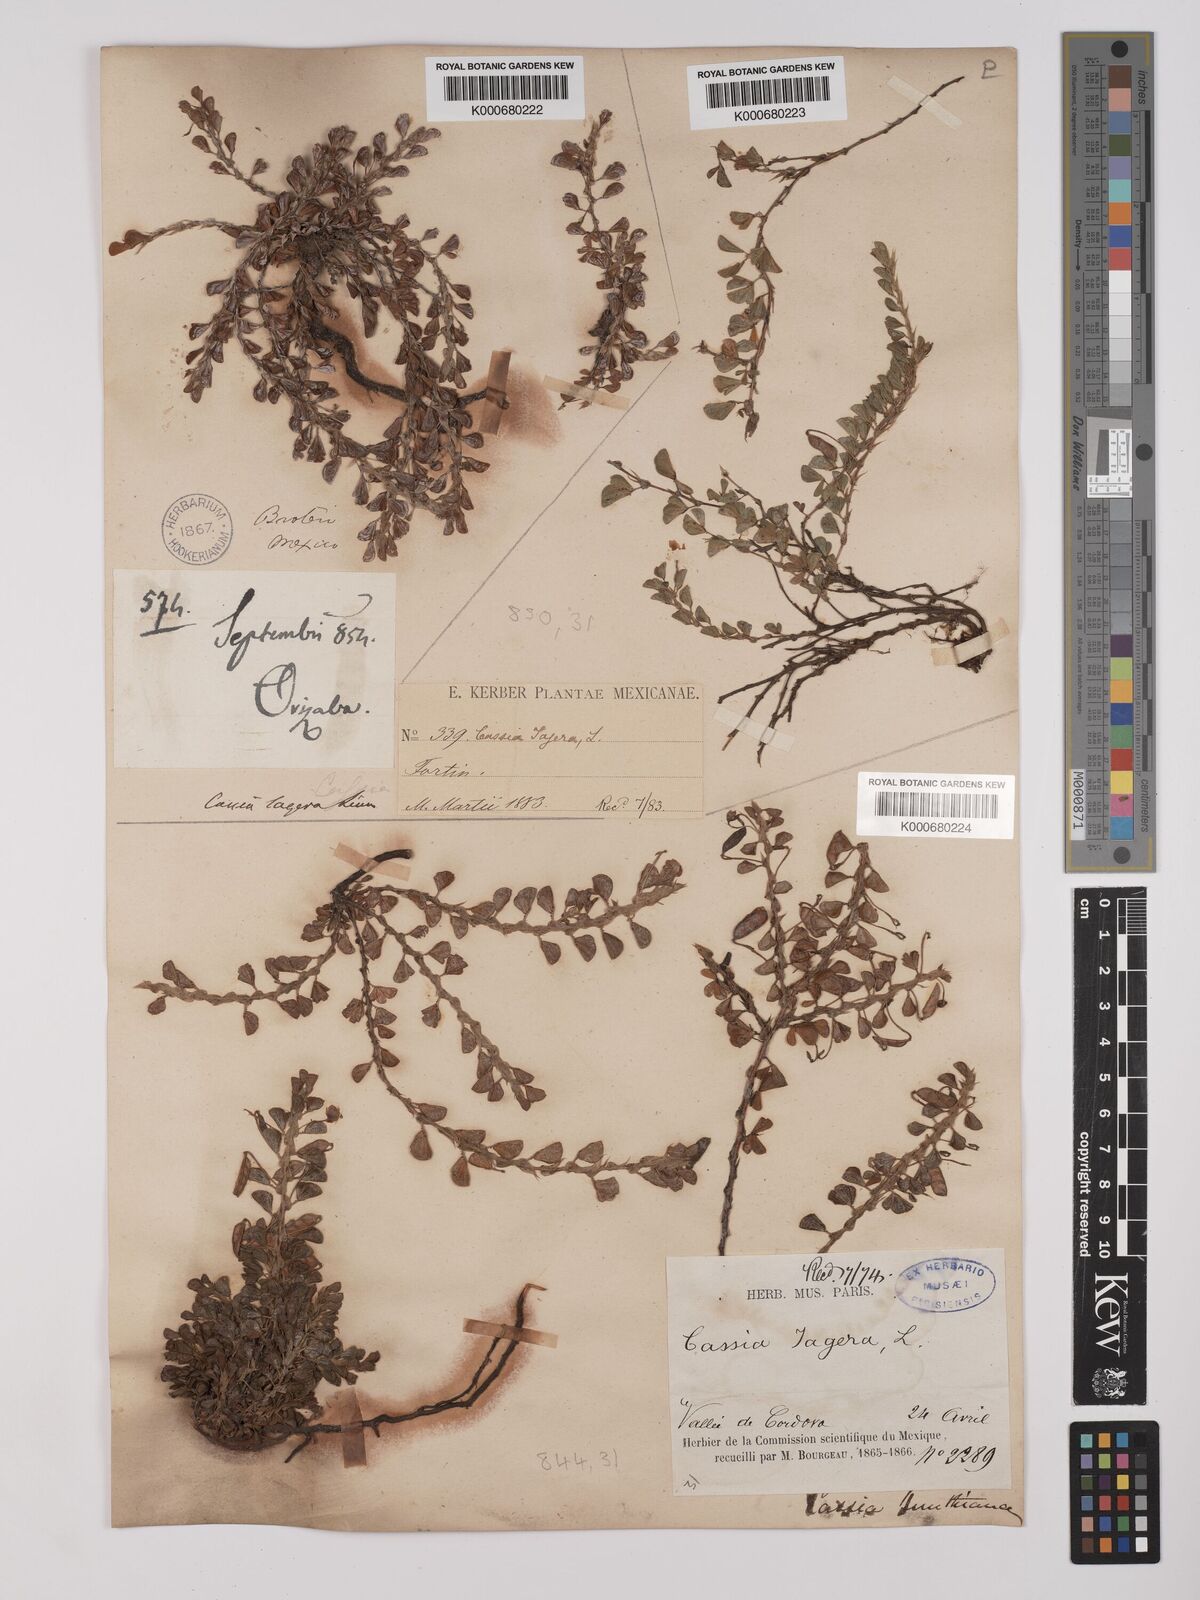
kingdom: Plantae
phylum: Tracheophyta
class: Magnoliopsida
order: Fabales
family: Fabaceae
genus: Chamaecrista
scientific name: Chamaecrista kunthiana
